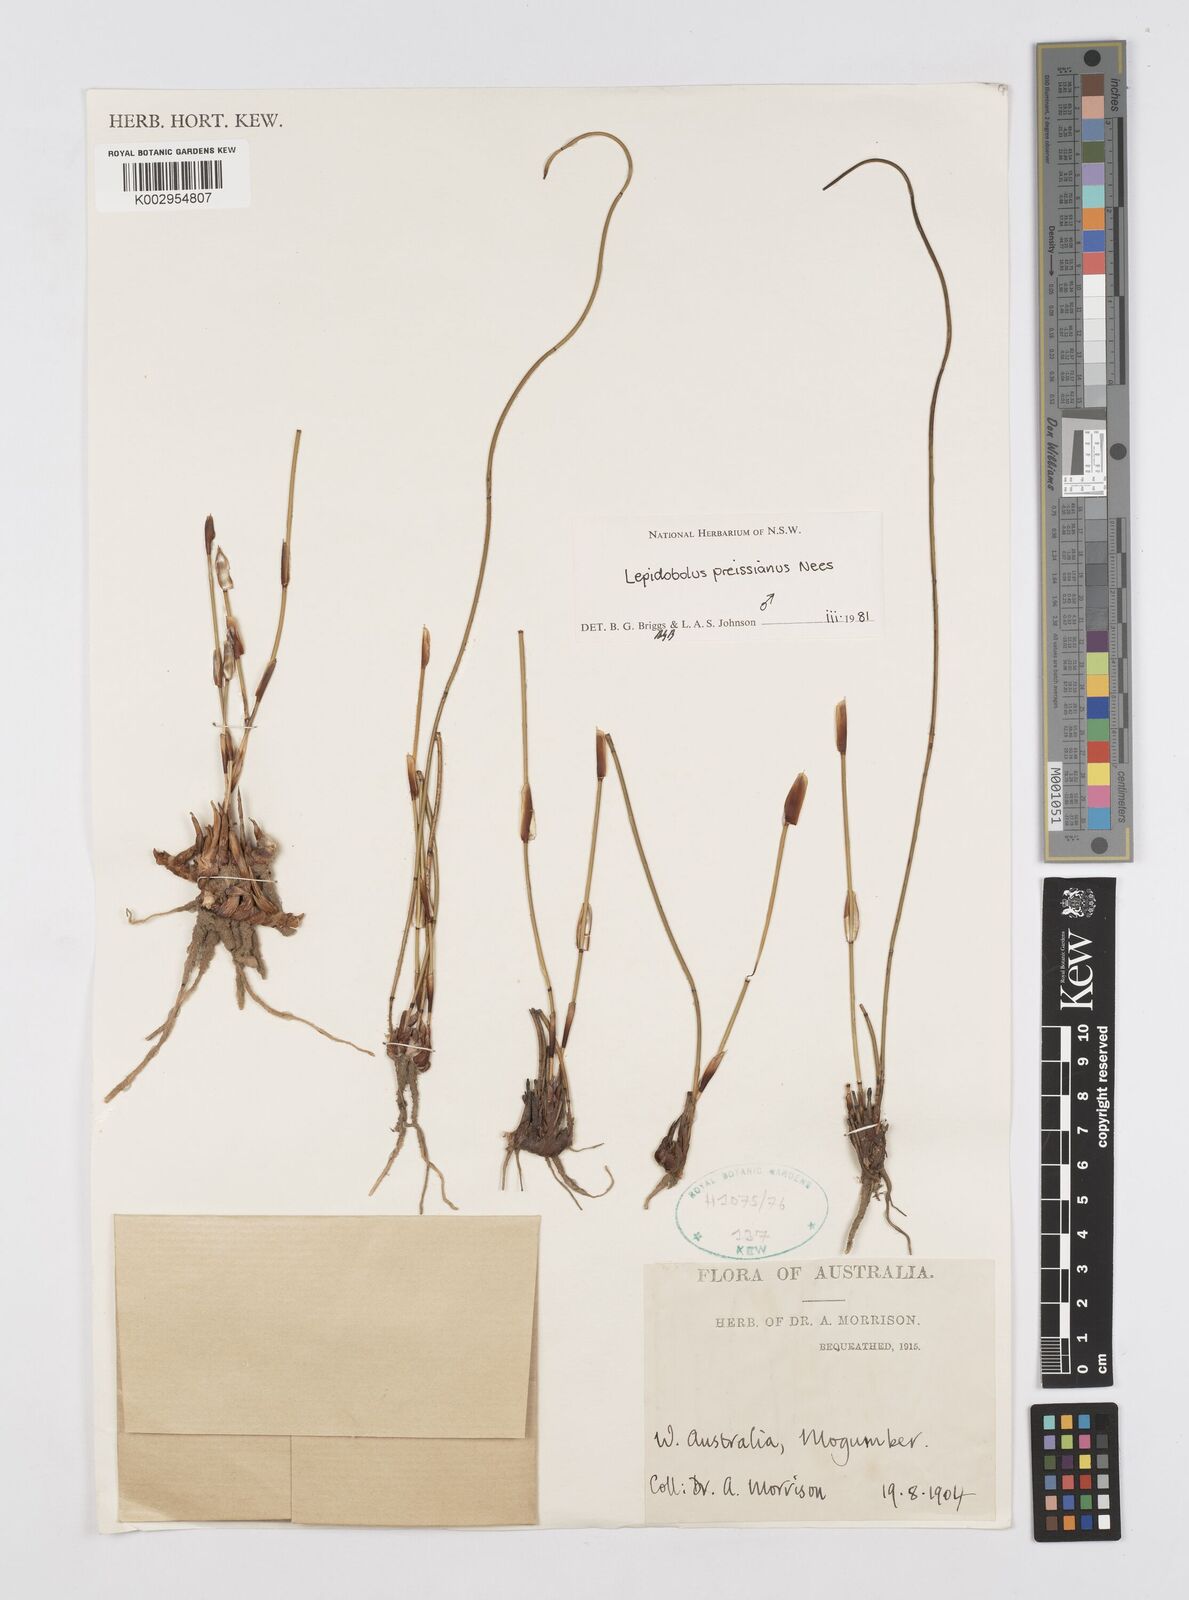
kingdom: Plantae
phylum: Tracheophyta
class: Liliopsida
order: Poales
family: Restionaceae
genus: Lepidobolus
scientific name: Lepidobolus preissianus
